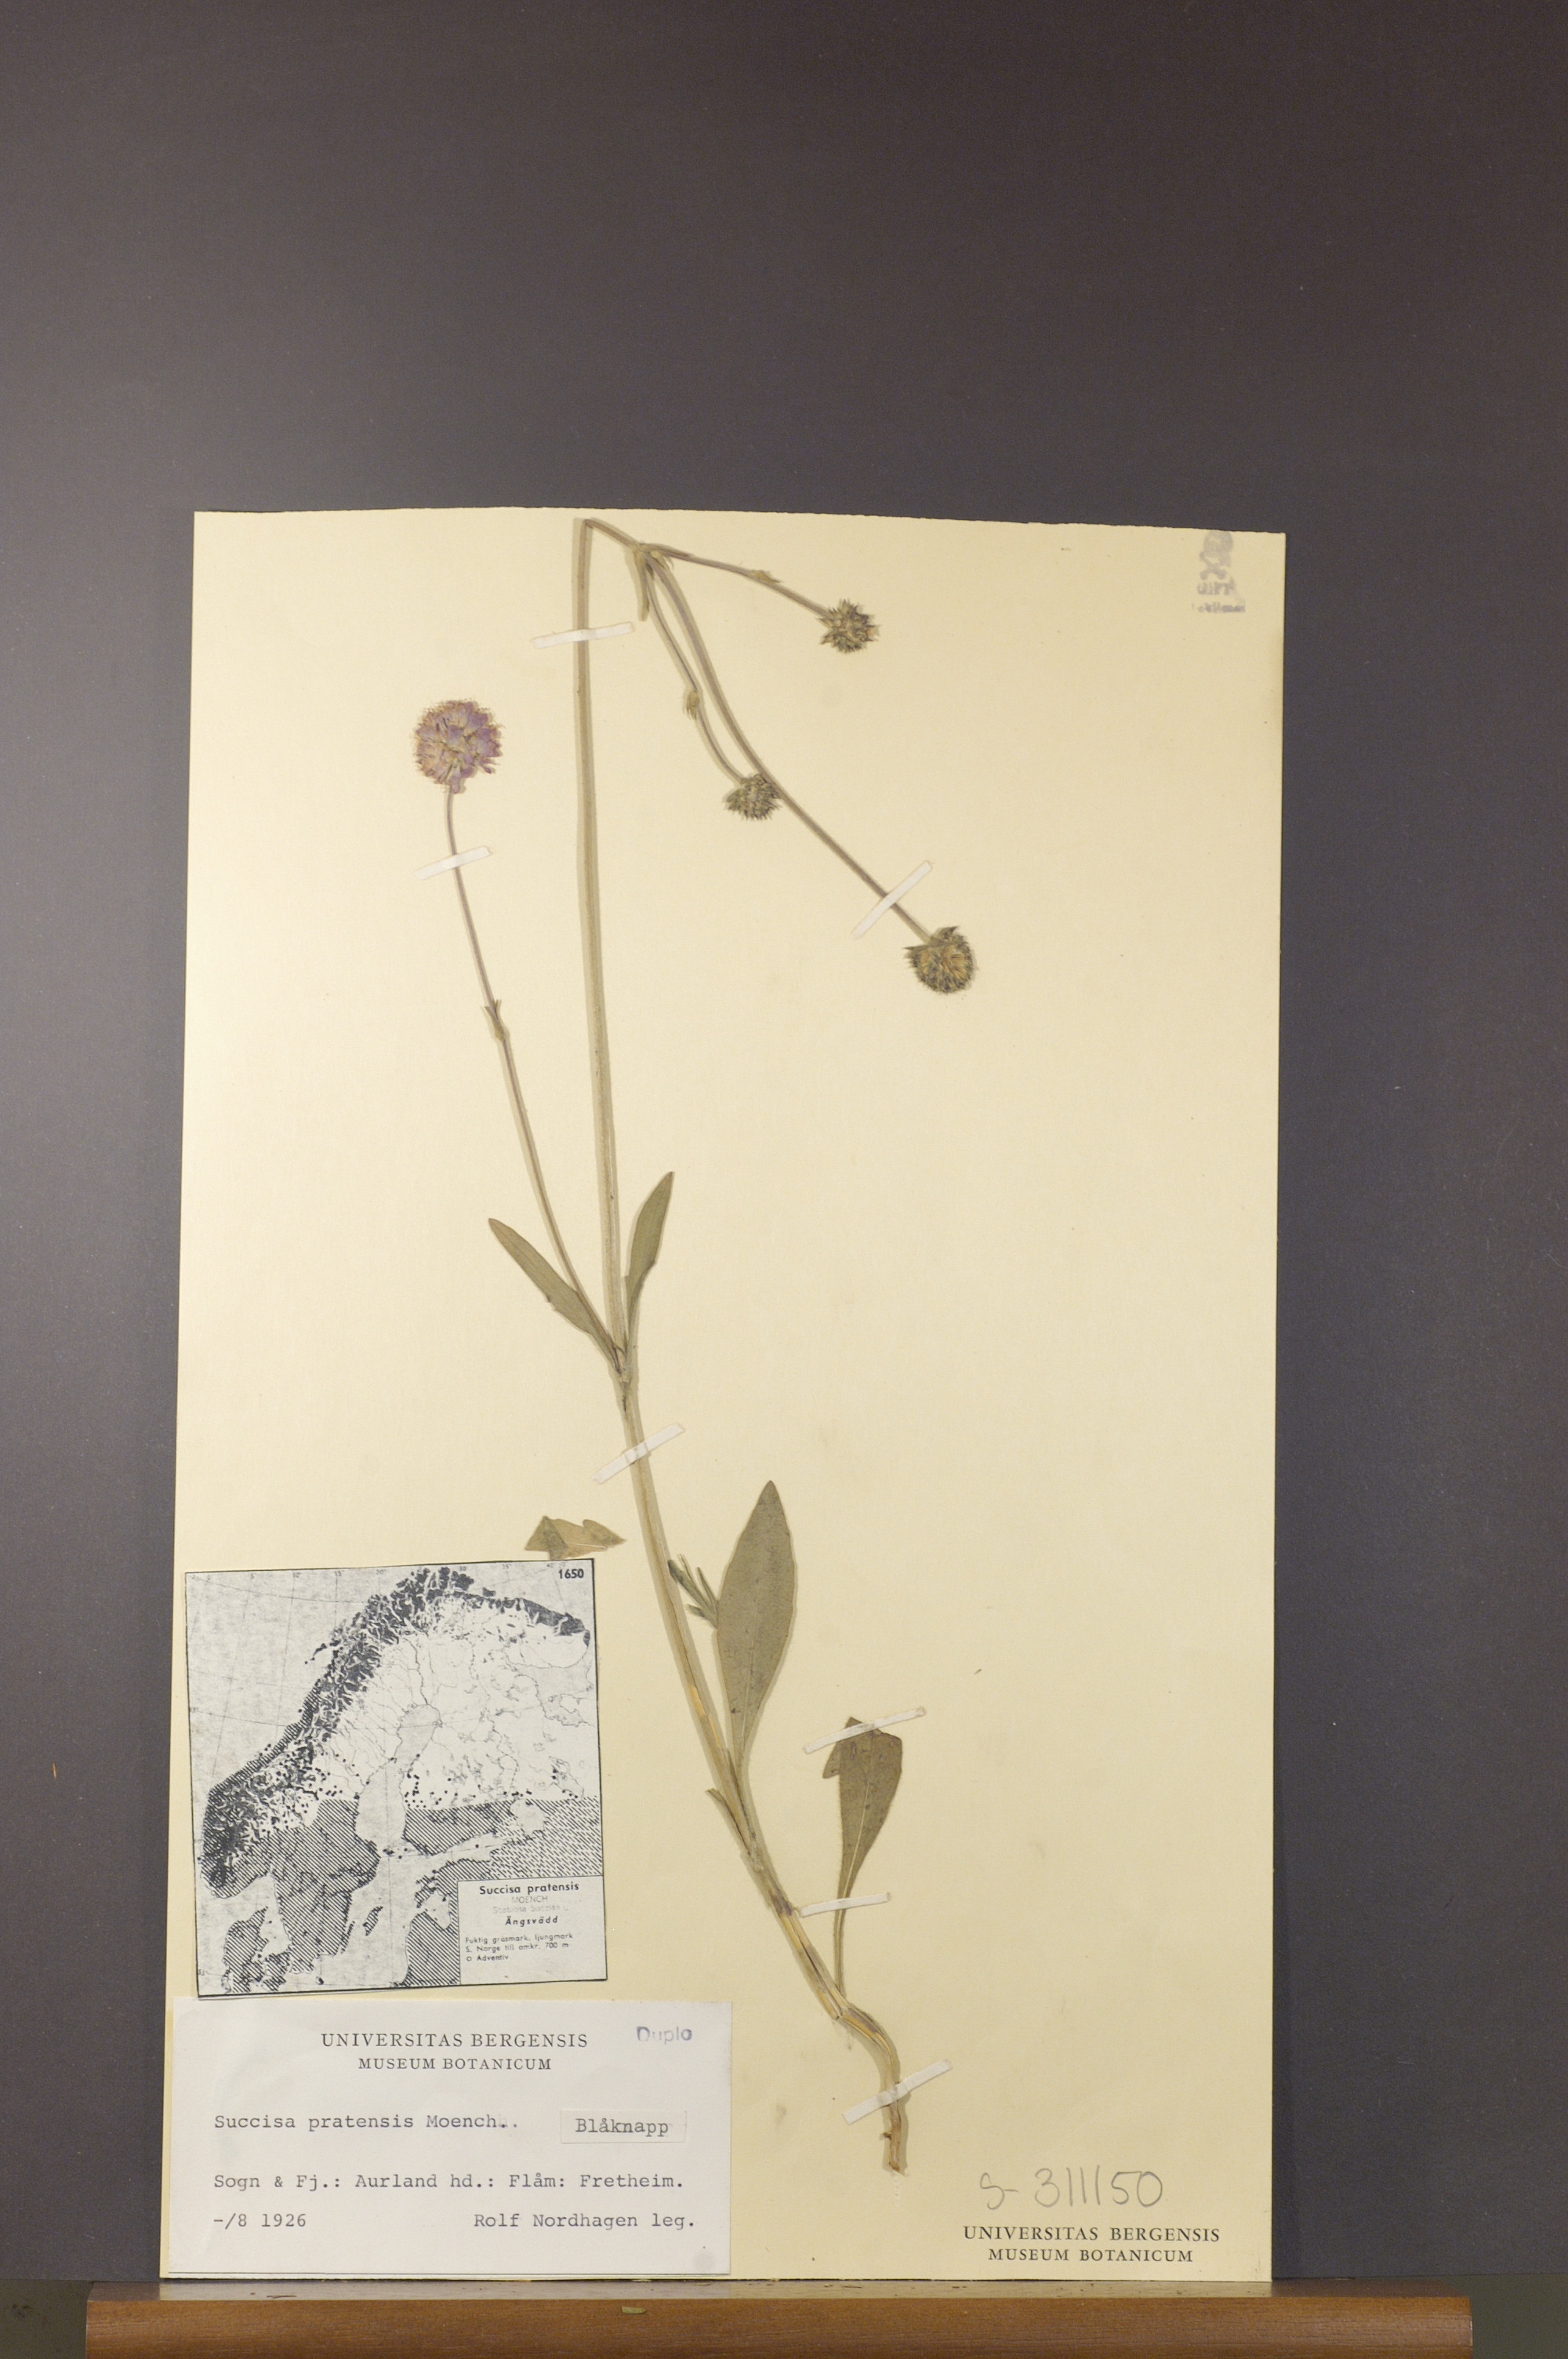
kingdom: Plantae
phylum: Tracheophyta
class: Magnoliopsida
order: Dipsacales
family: Caprifoliaceae
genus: Succisa
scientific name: Succisa pratensis
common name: Devil's-bit
